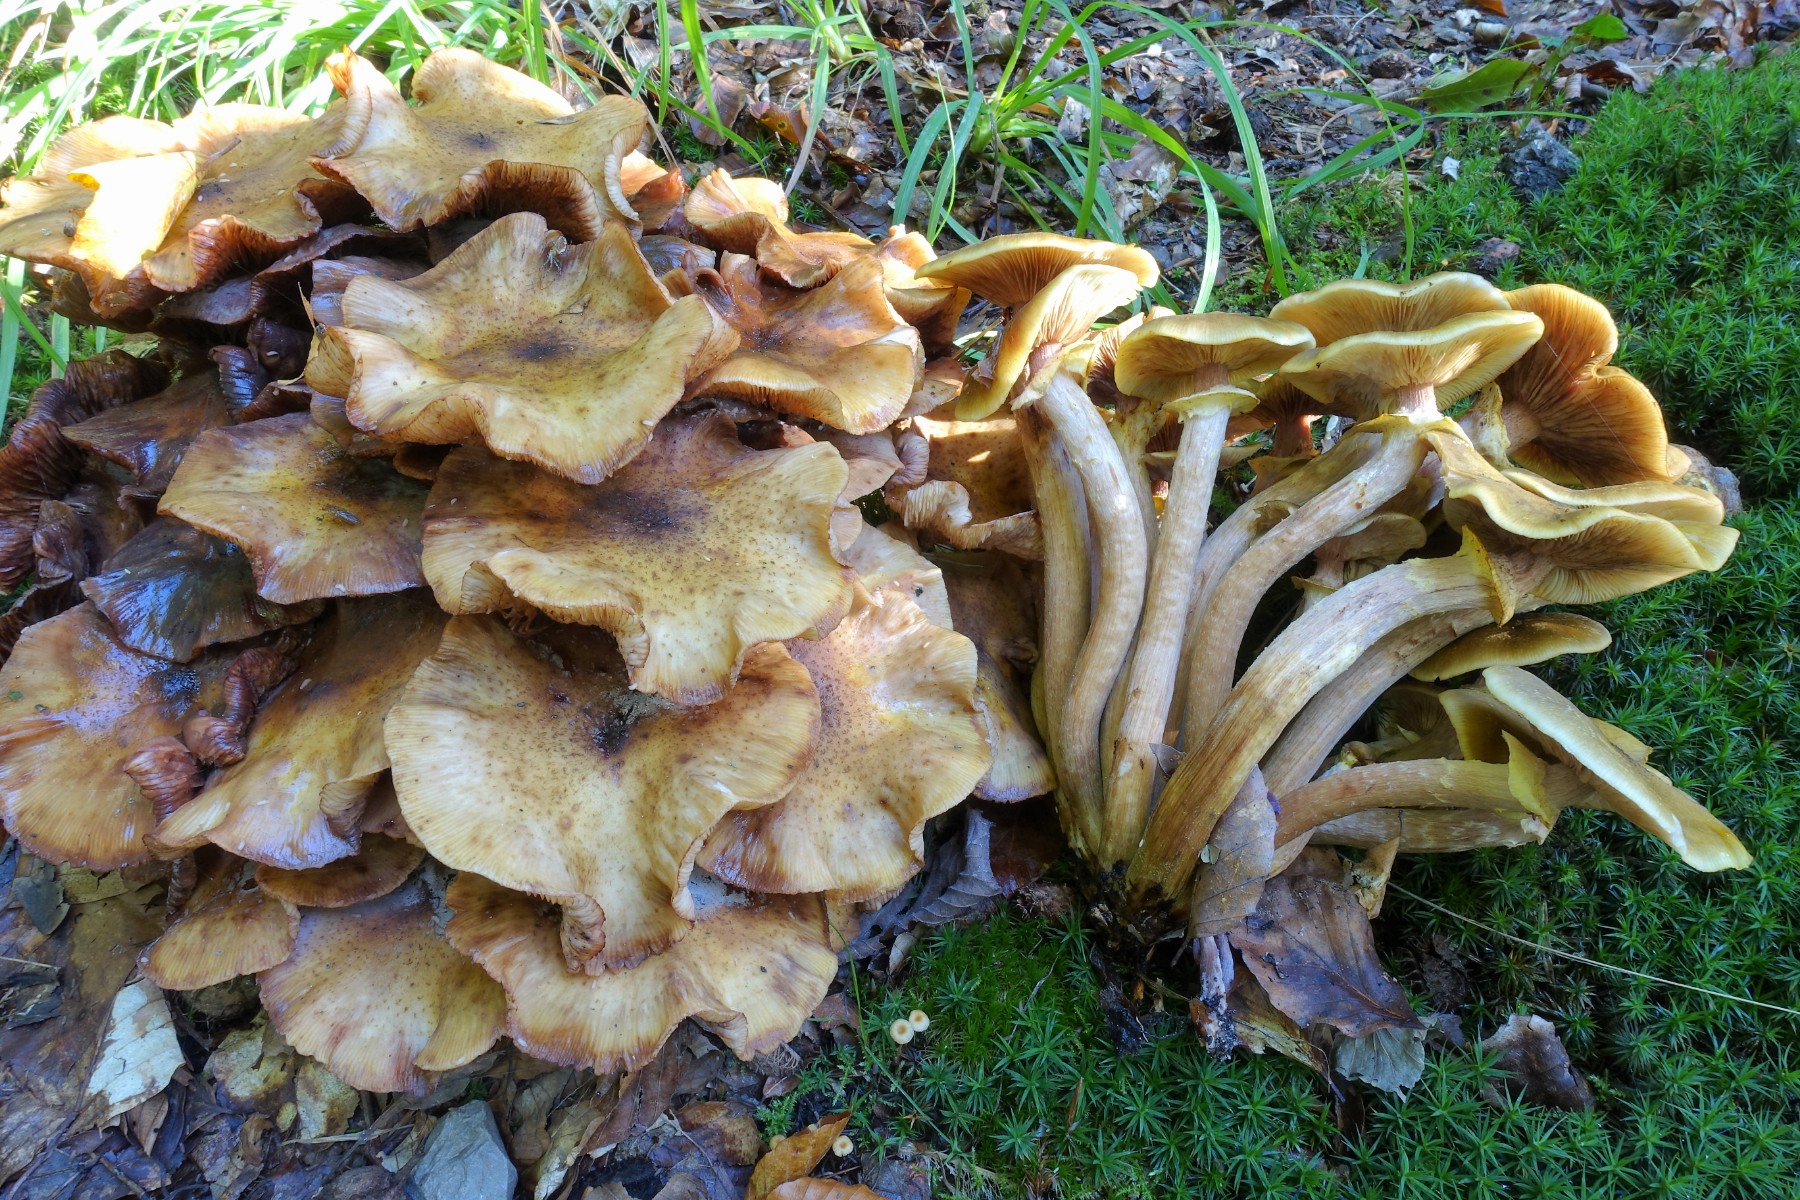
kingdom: Fungi
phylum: Basidiomycota
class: Agaricomycetes
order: Agaricales
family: Physalacriaceae
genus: Armillaria
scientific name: Armillaria mellea
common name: ægte honningsvamp
